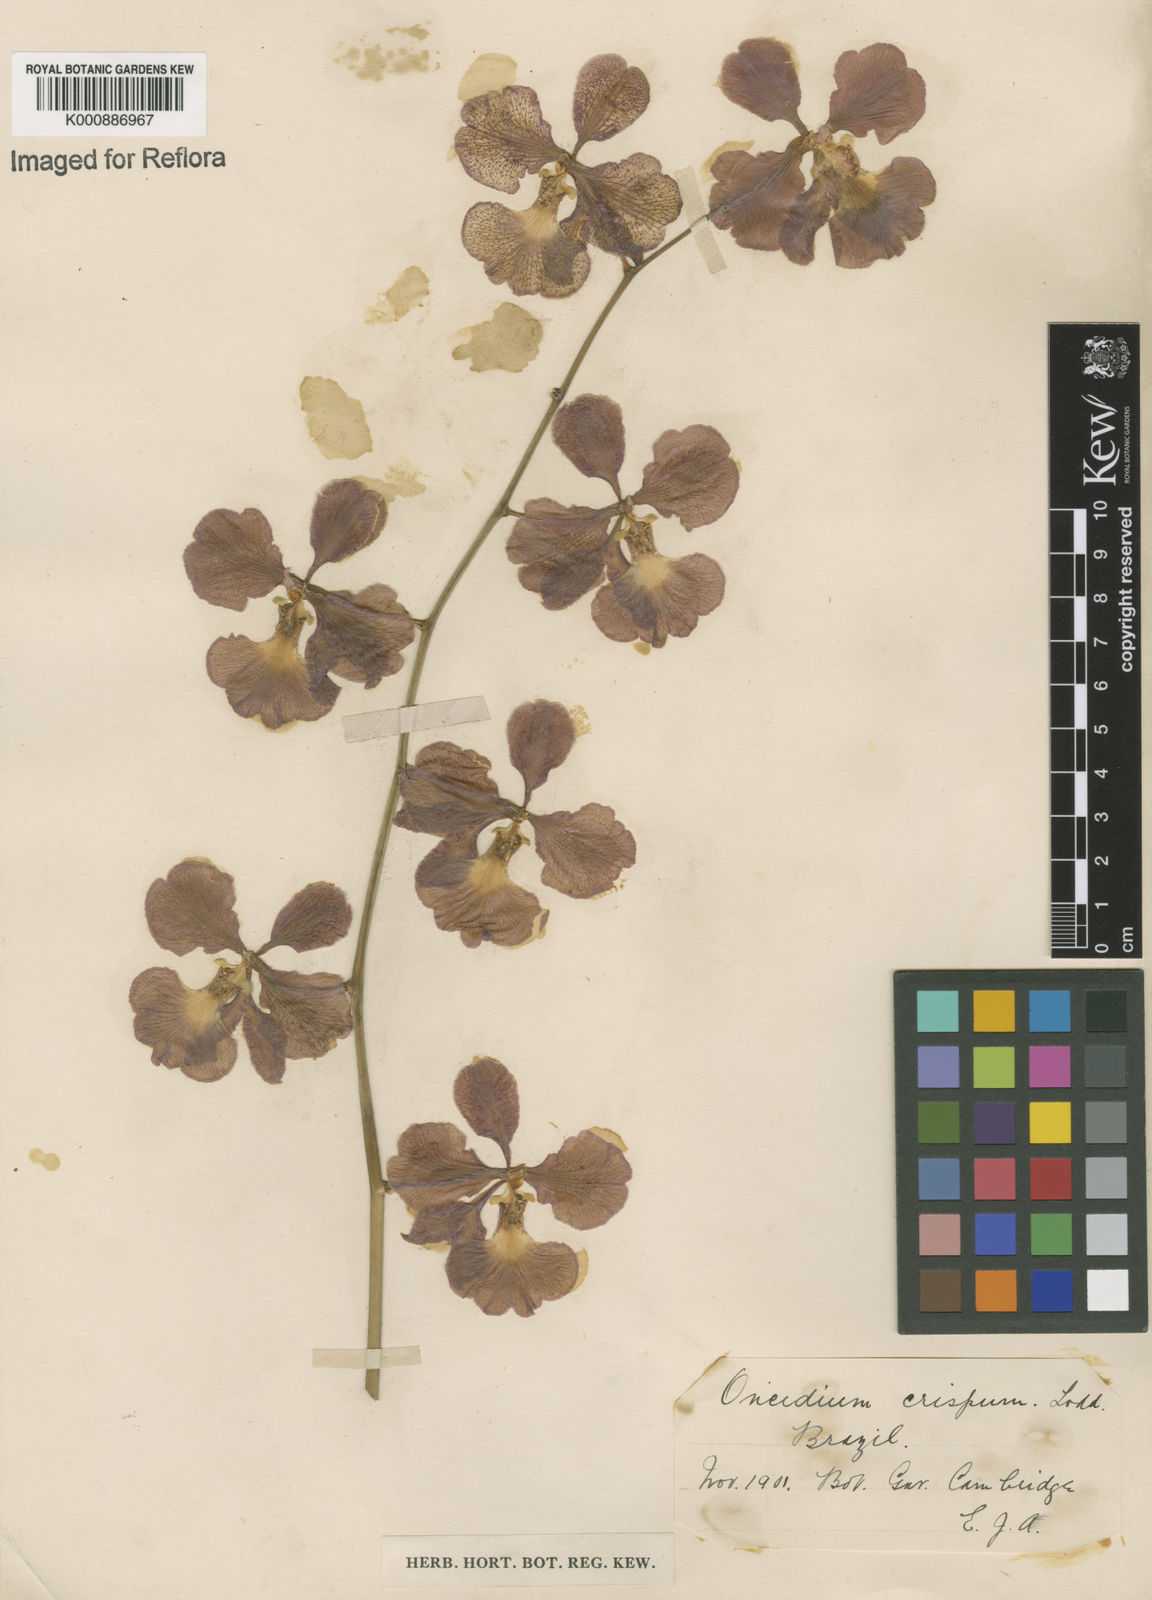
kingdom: Plantae
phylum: Tracheophyta
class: Liliopsida
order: Asparagales
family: Orchidaceae
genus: Gomesa
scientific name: Gomesa imperatoris-maximiliani
